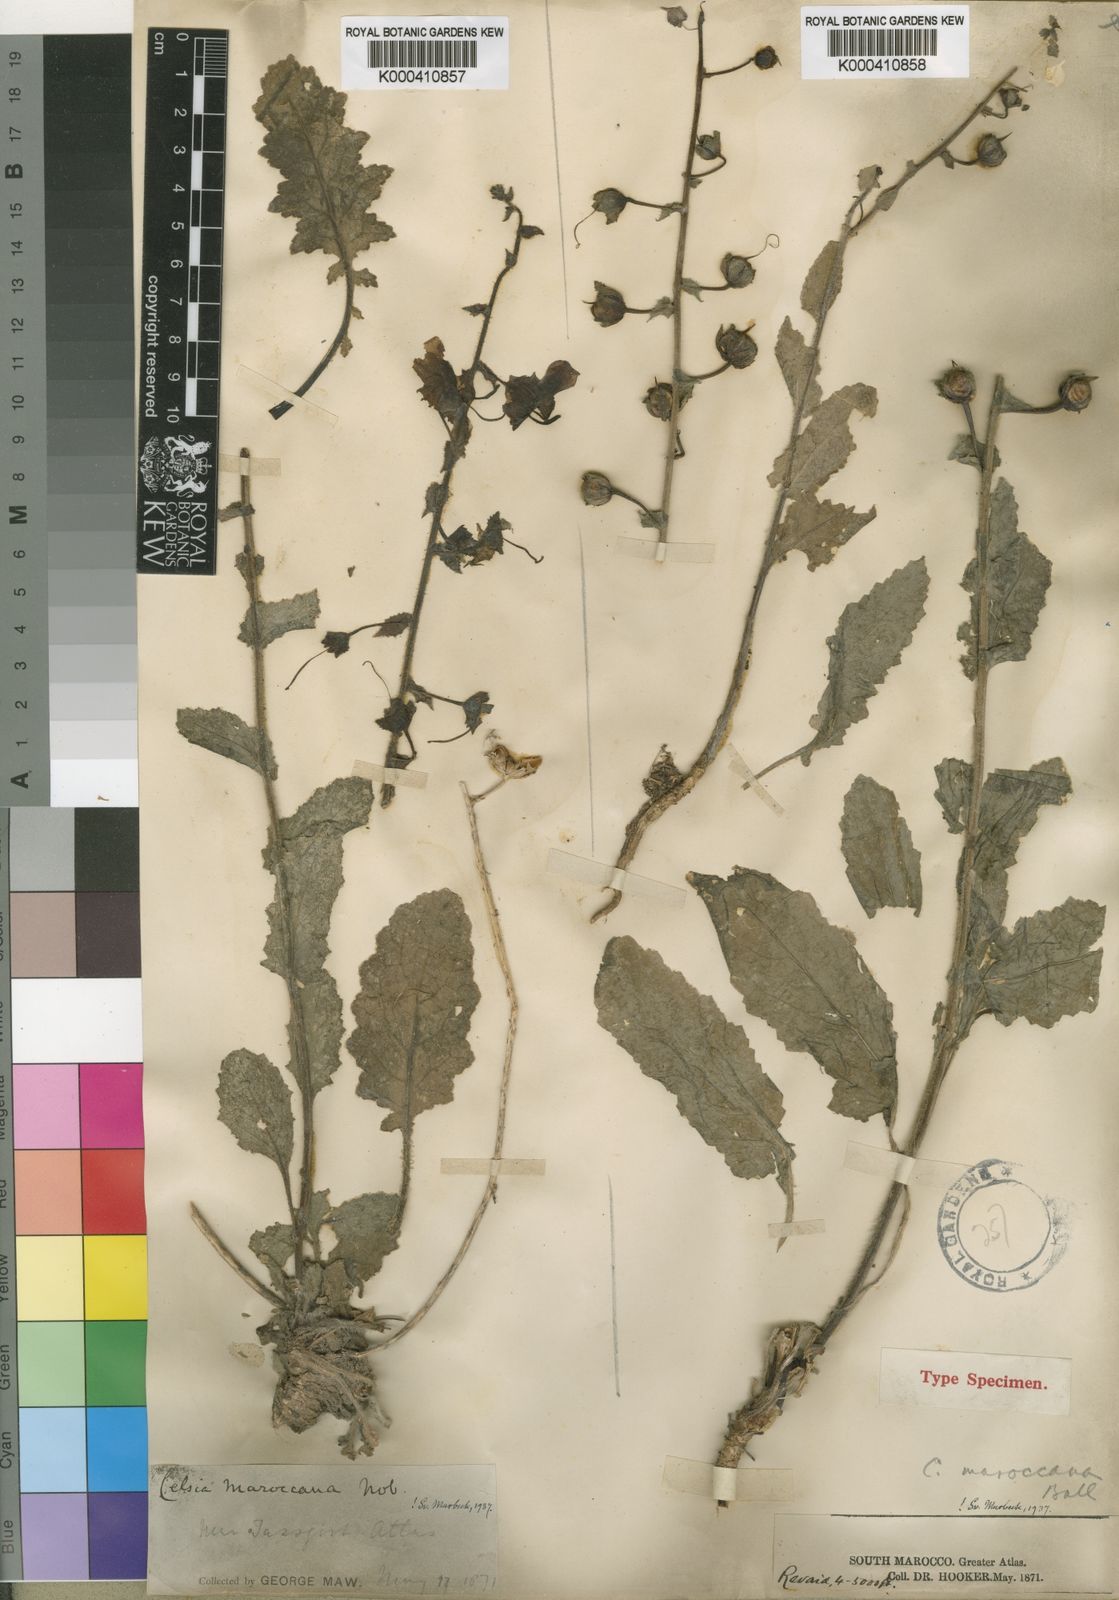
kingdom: Plantae
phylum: Tracheophyta
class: Magnoliopsida
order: Lamiales
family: Scrophulariaceae
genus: Verbascum
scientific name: Verbascum maroccanum
